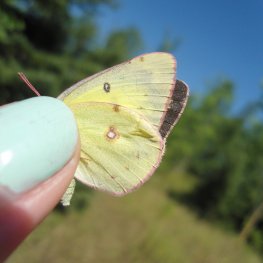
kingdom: Animalia
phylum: Arthropoda
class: Insecta
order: Lepidoptera
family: Pieridae
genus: Colias
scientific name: Colias philodice
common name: Clouded Sulphur
